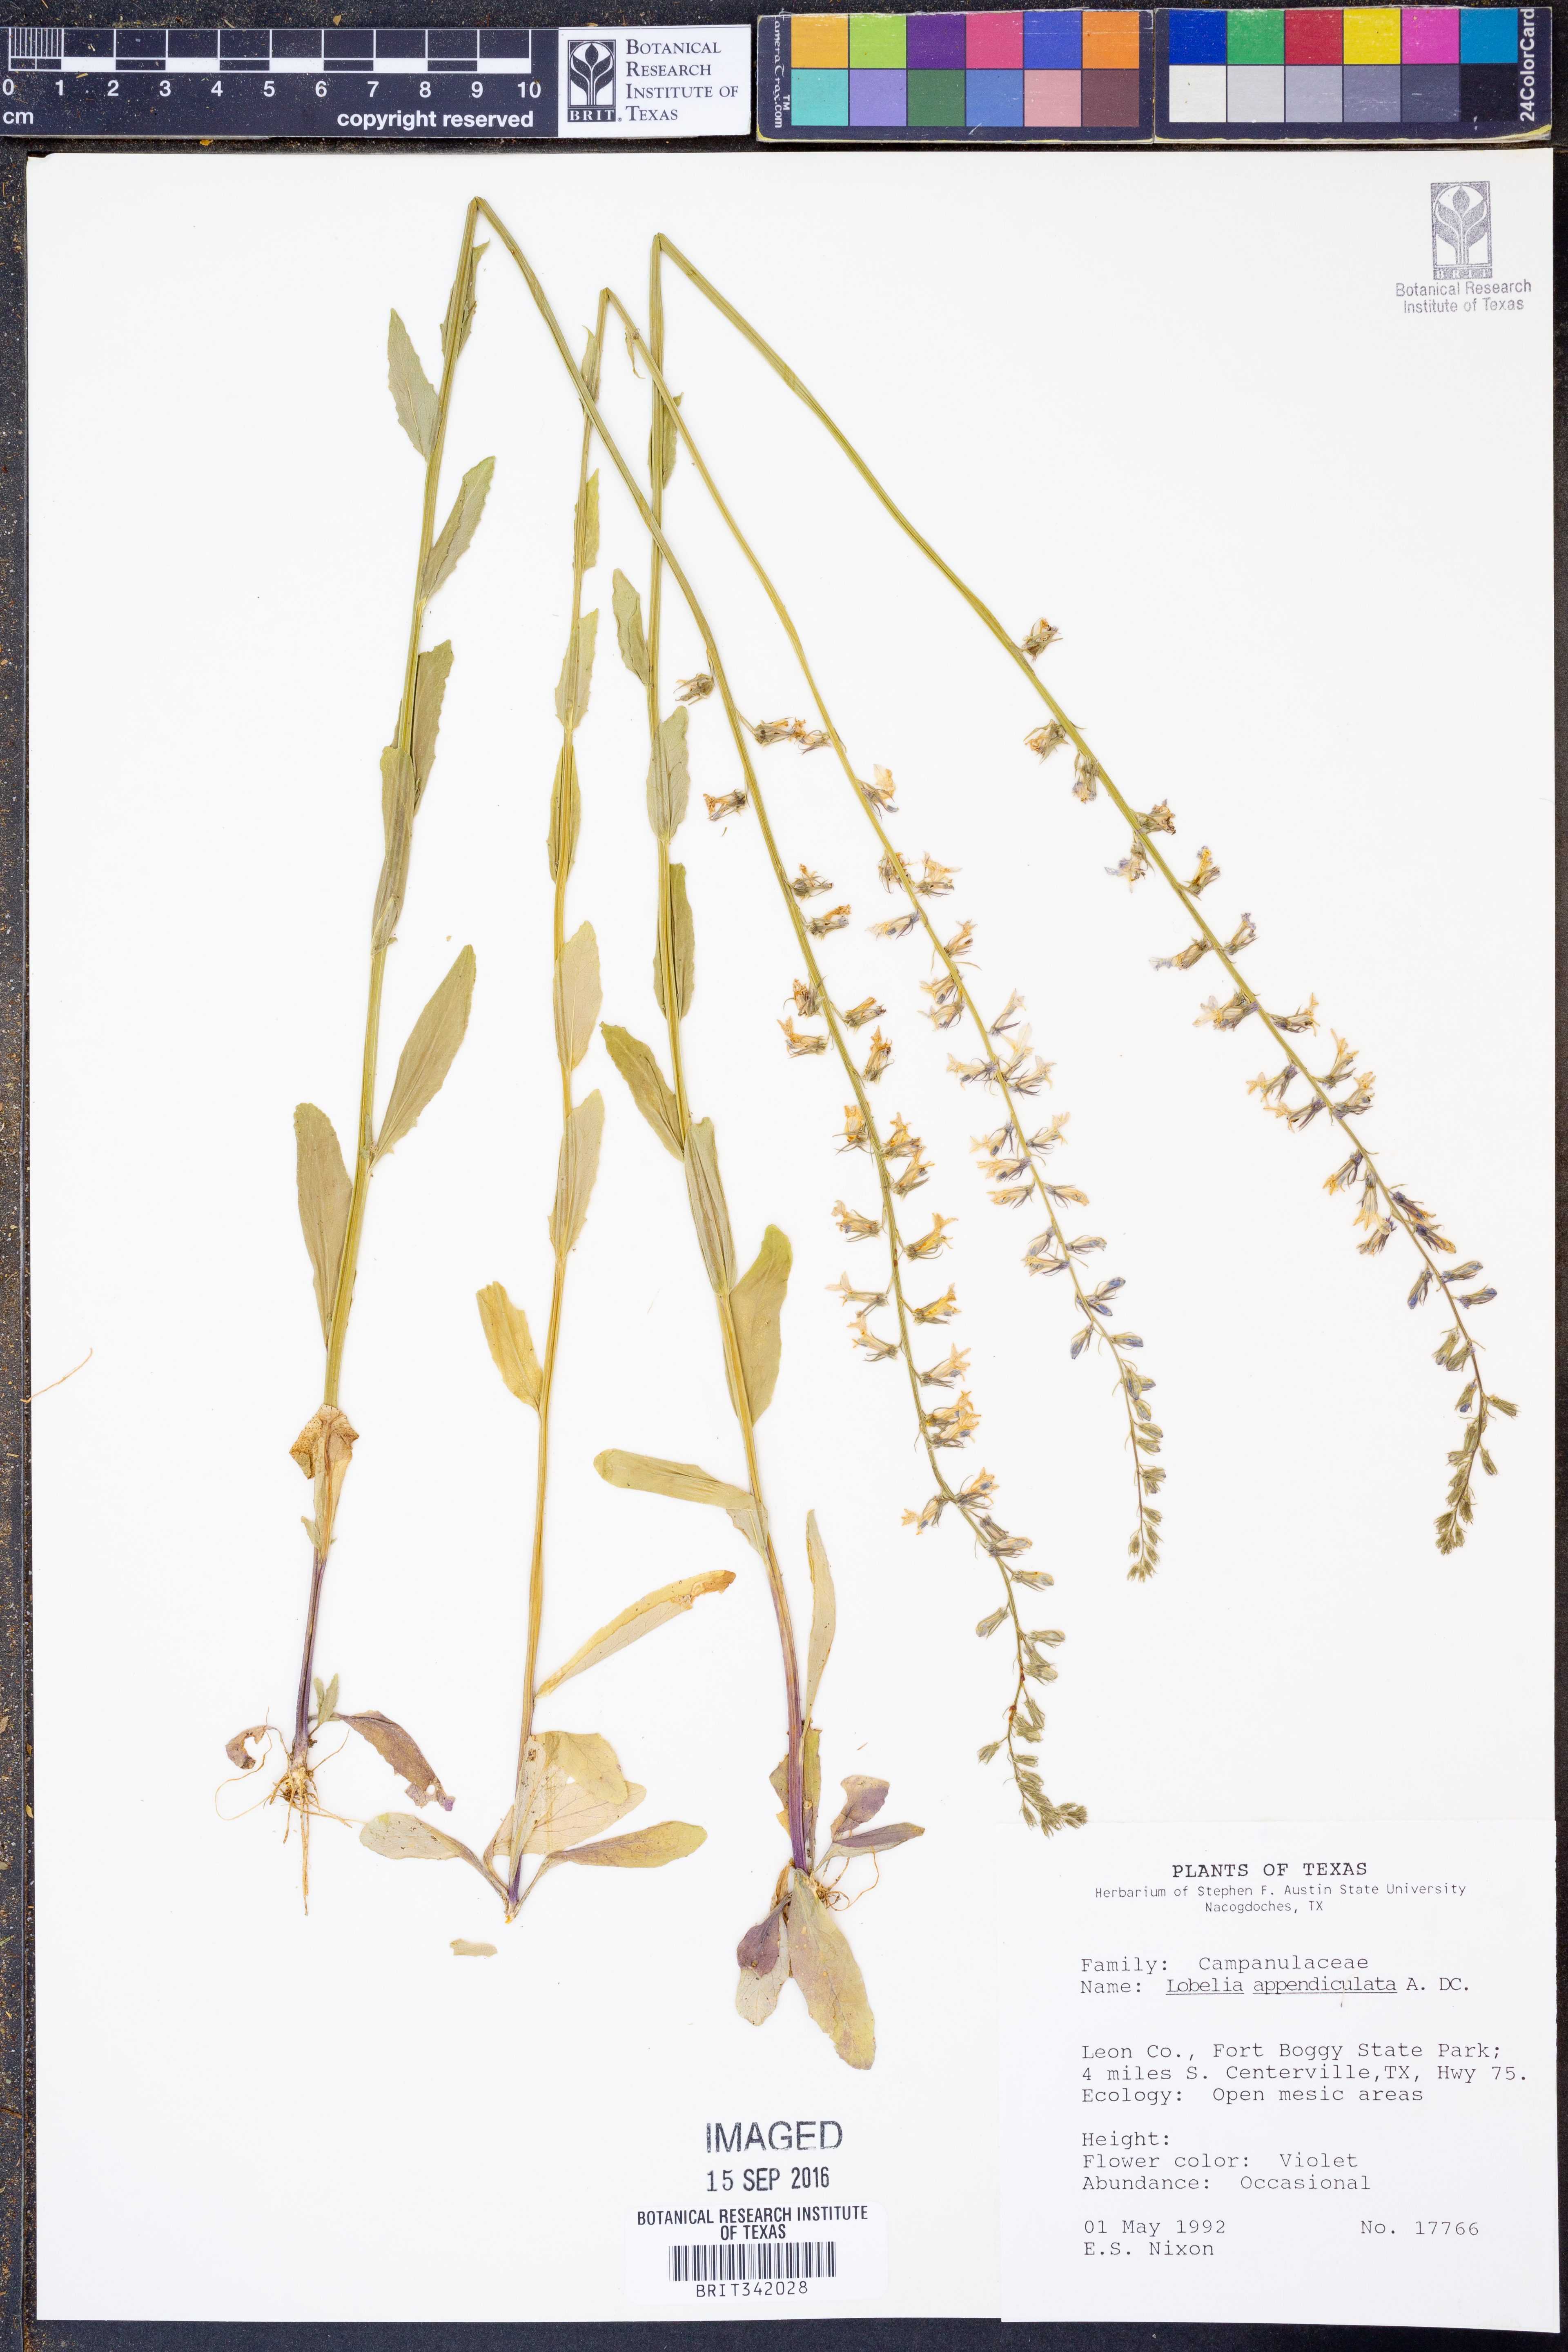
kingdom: Plantae
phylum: Tracheophyta
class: Magnoliopsida
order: Asterales
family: Campanulaceae
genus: Lobelia
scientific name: Lobelia appendiculata
